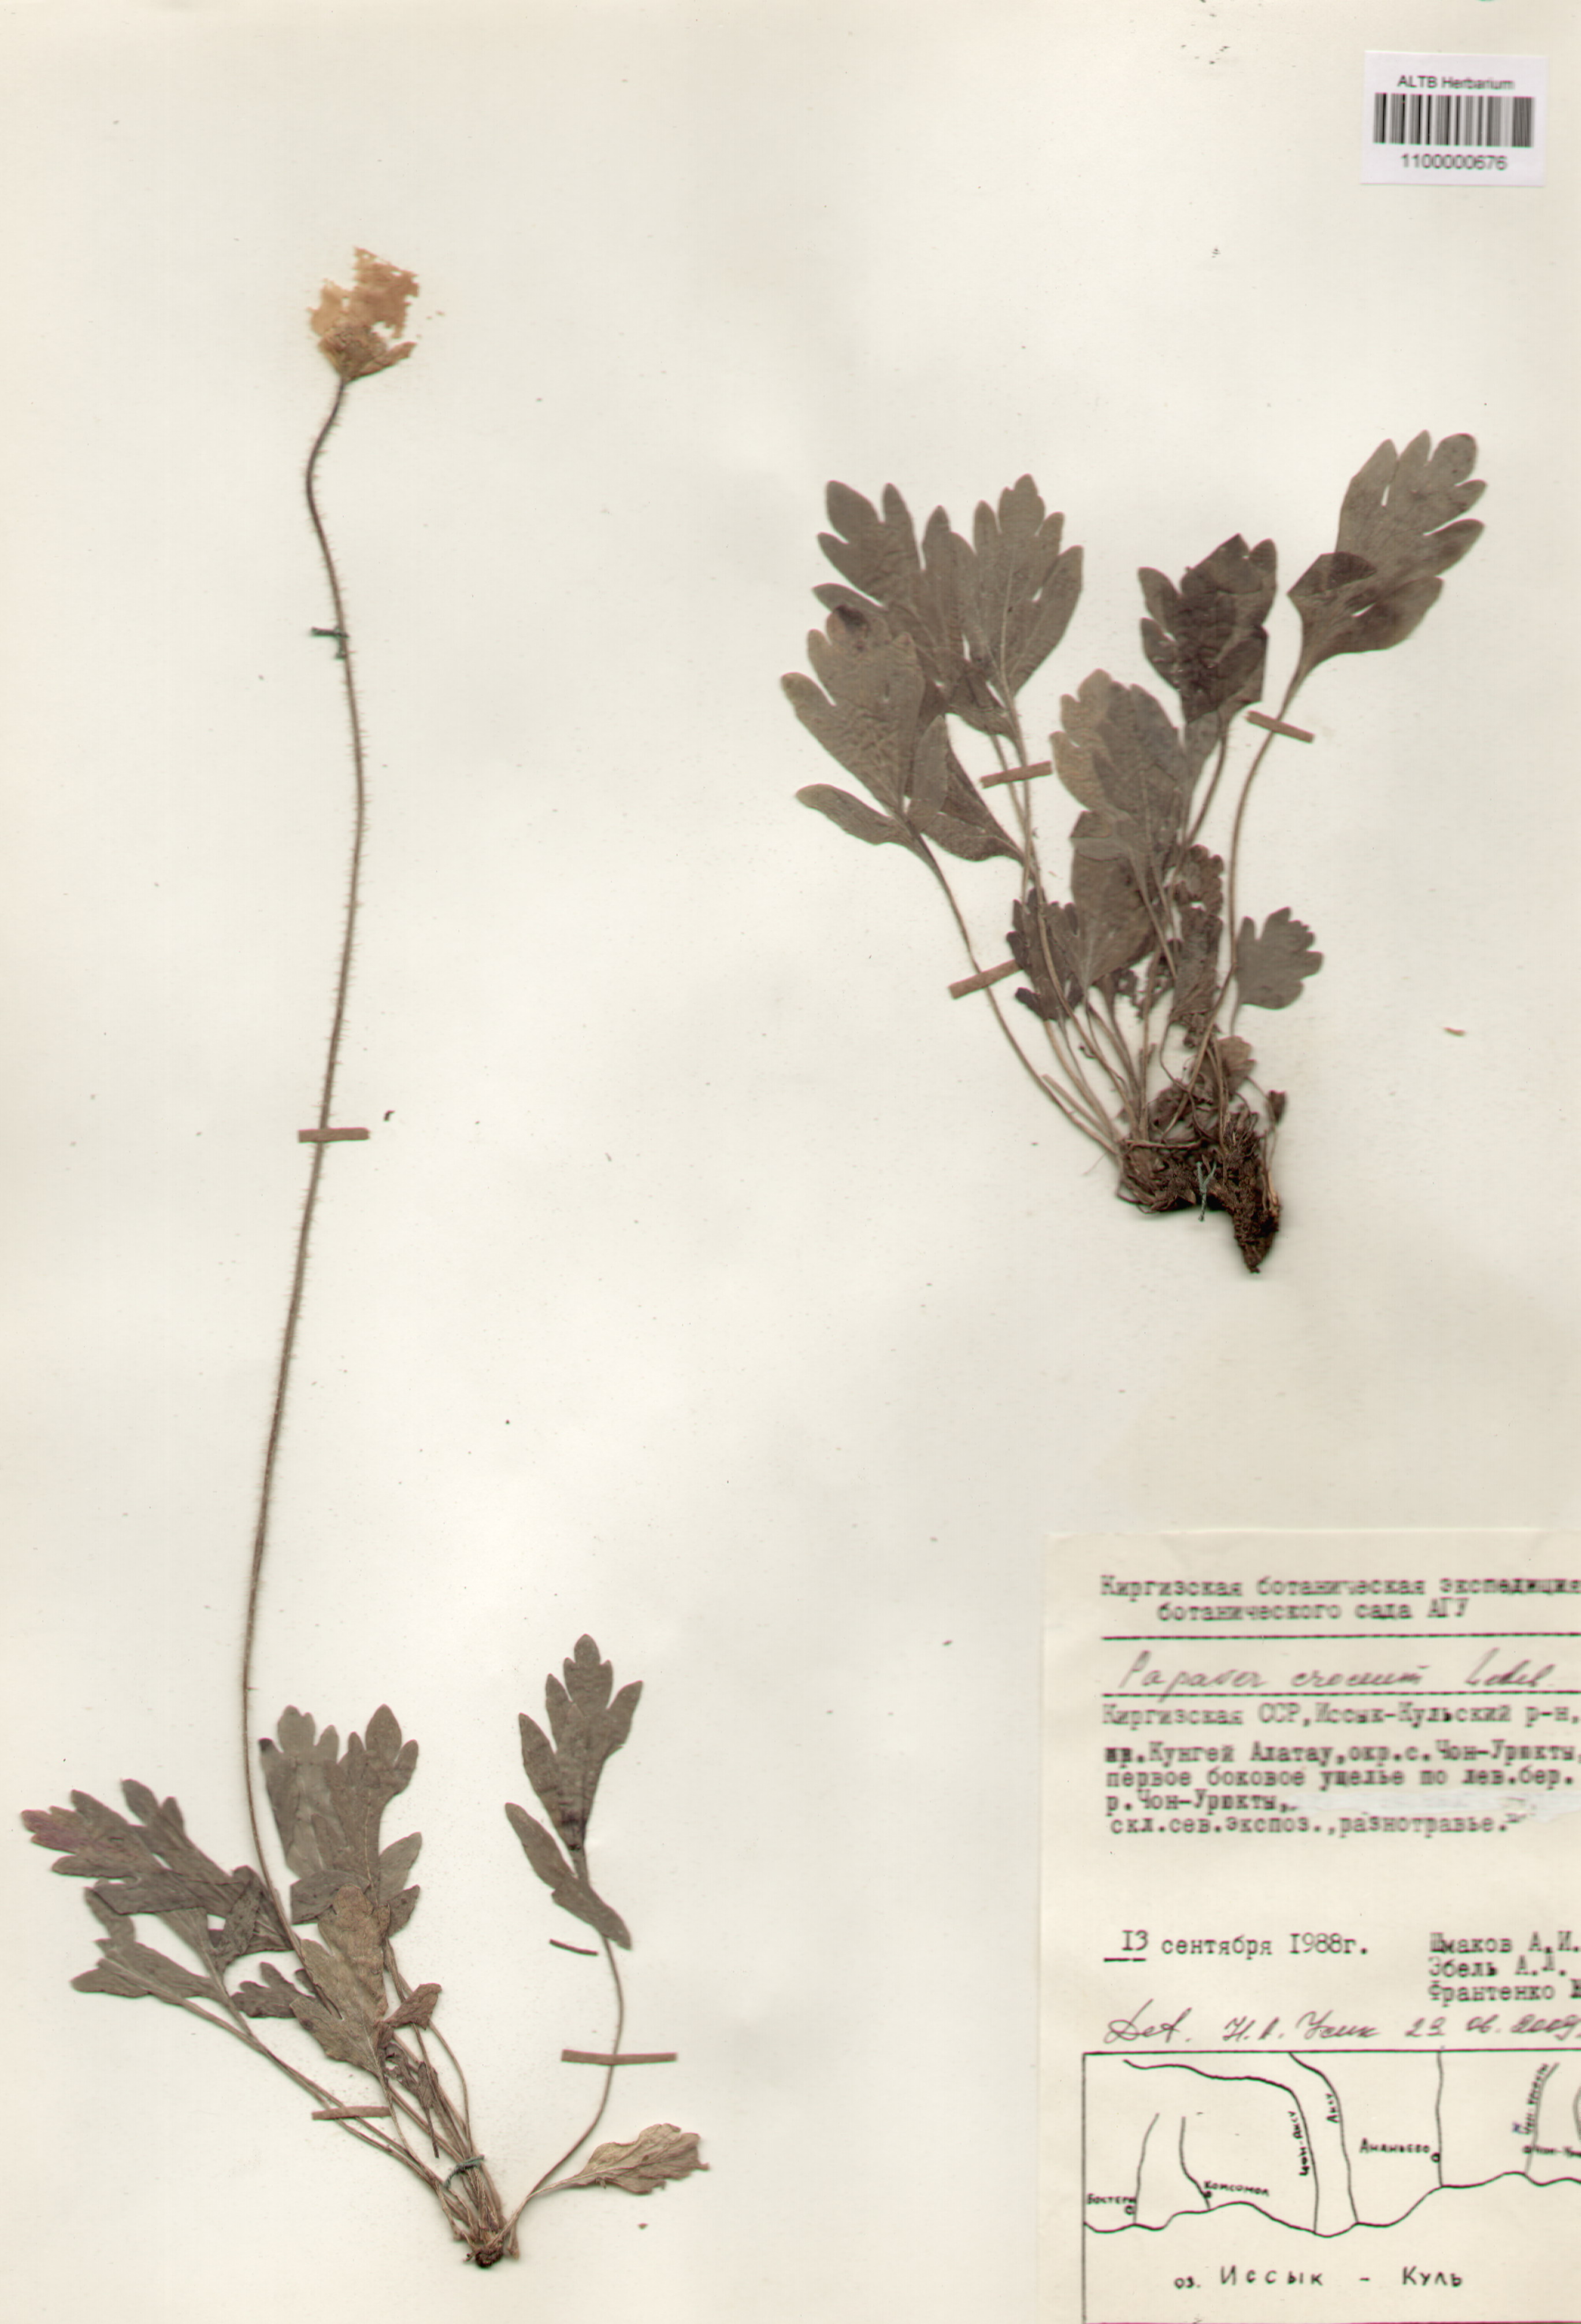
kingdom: Plantae
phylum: Tracheophyta
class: Magnoliopsida
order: Ranunculales
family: Papaveraceae
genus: Papaver
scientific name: Papaver croceum
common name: Siberian poppy
